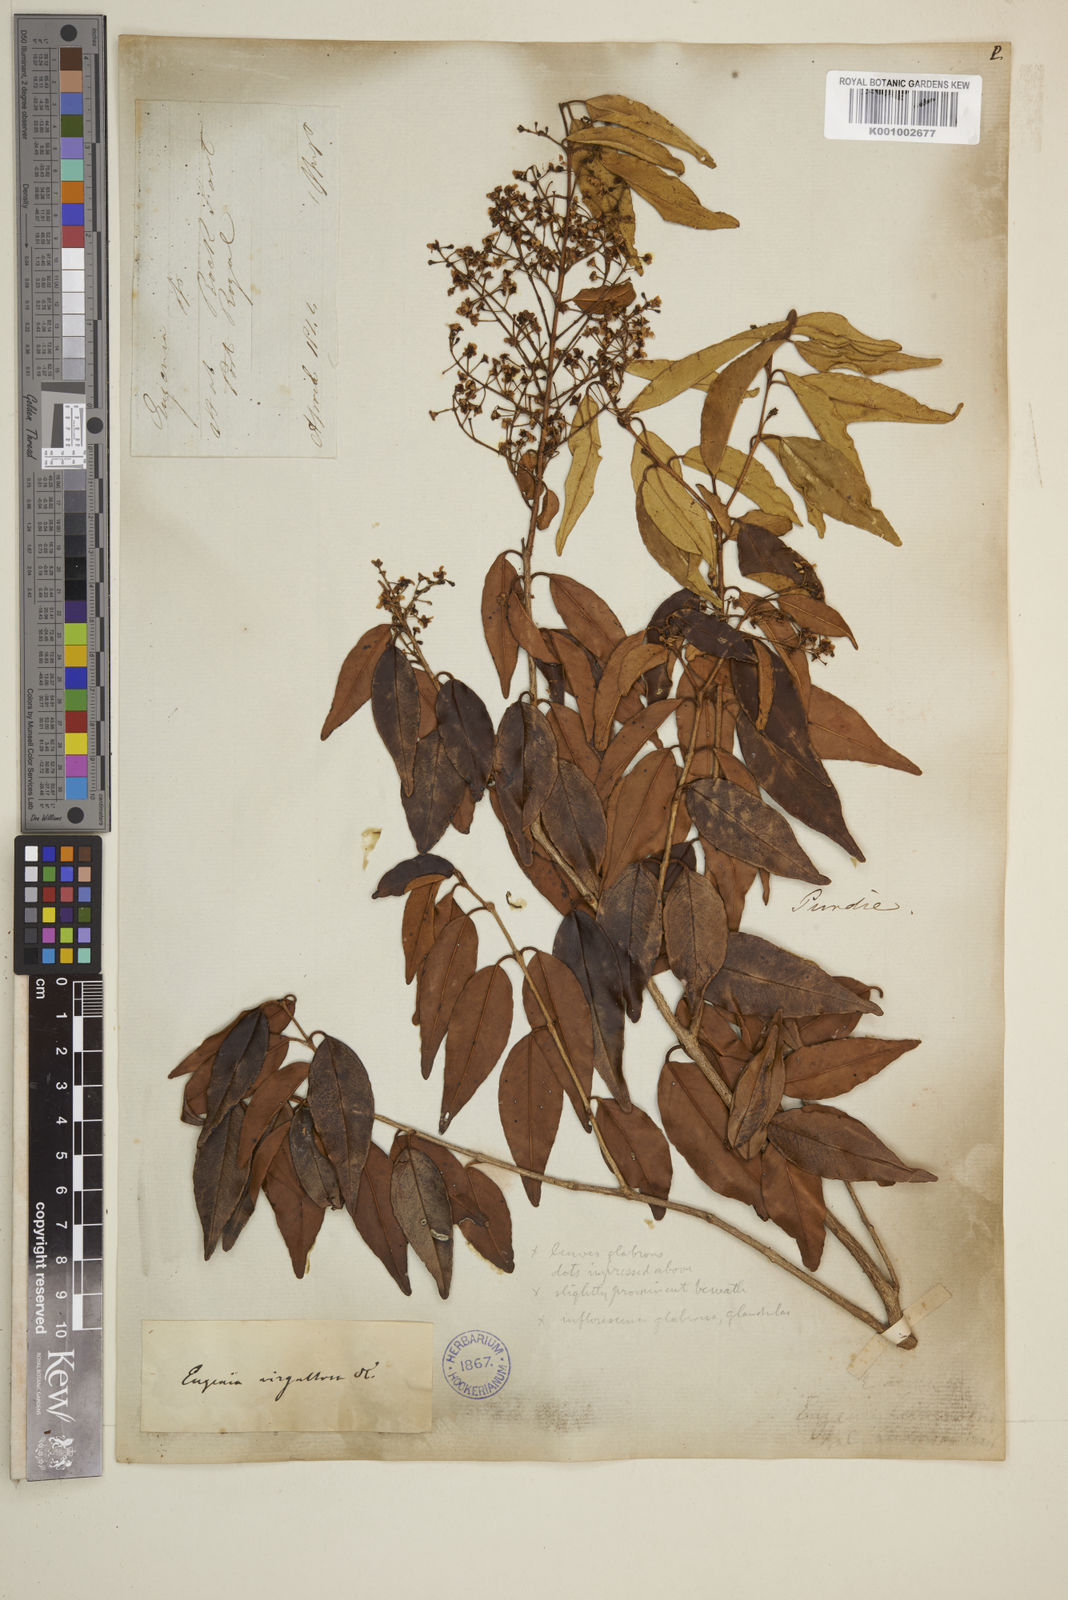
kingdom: Plantae
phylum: Tracheophyta
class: Magnoliopsida
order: Myrtales
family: Myrtaceae
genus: Eugenia
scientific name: Eugenia biflora
